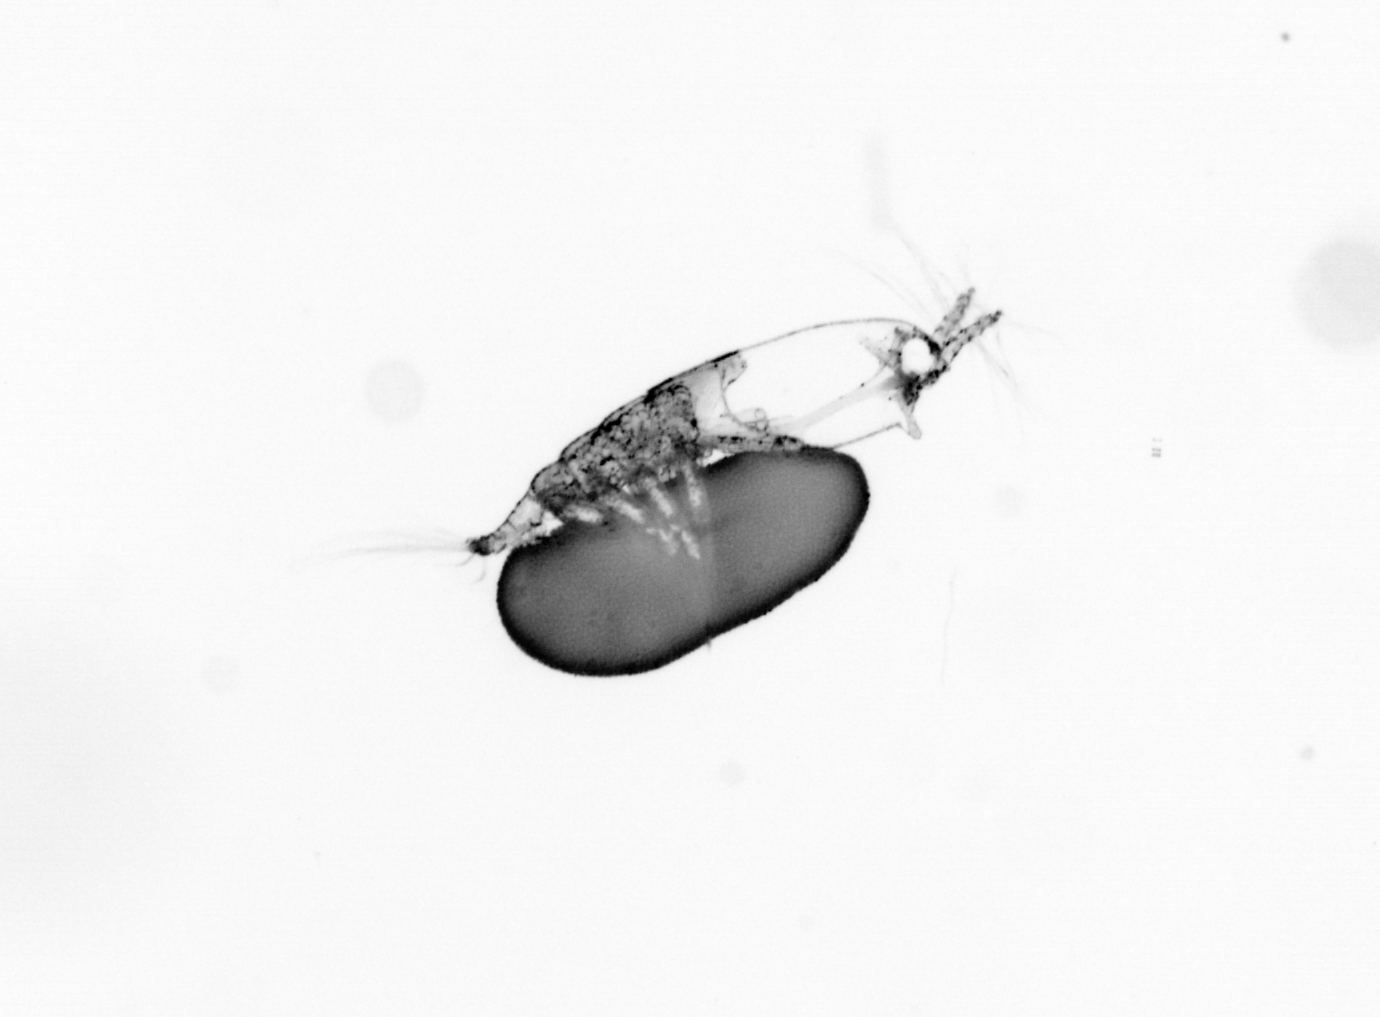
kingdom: Animalia
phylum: Arthropoda
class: Copepoda
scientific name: Copepoda
